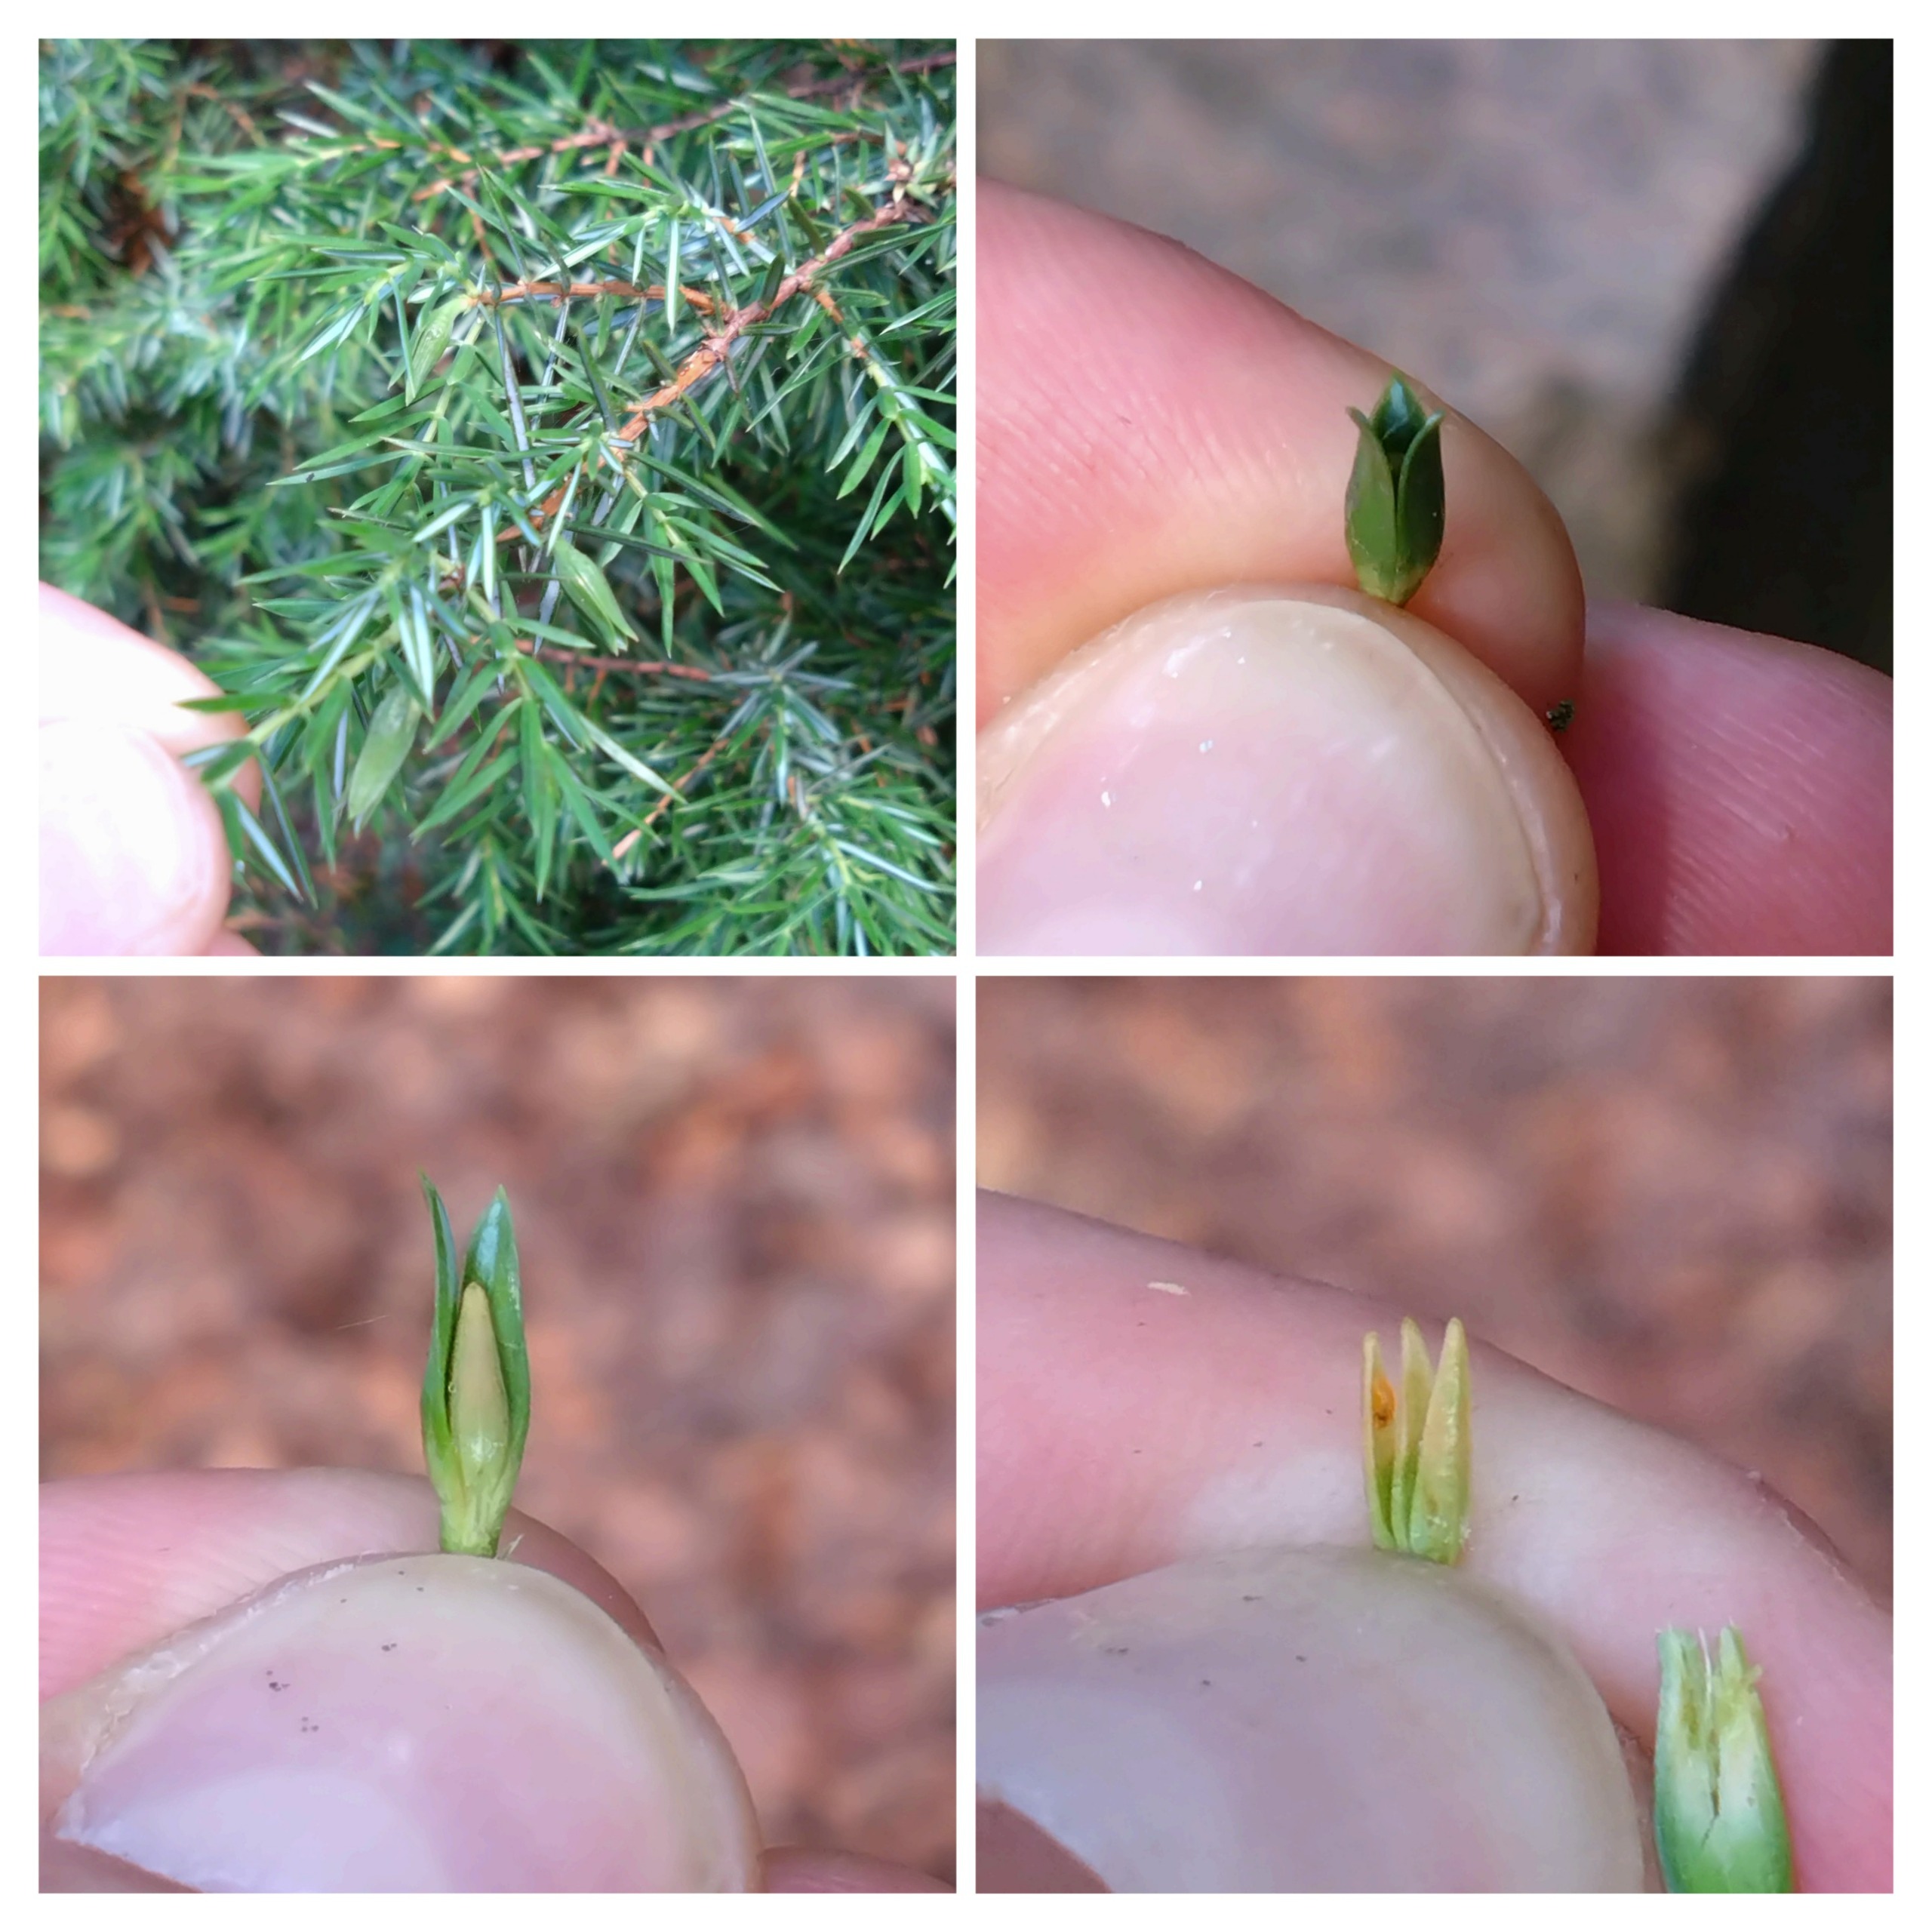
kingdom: Animalia
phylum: Arthropoda
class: Insecta
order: Diptera
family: Cecidomyiidae
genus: Oligotrophus
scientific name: Oligotrophus juniperinus
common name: Kikbærgalmyg
